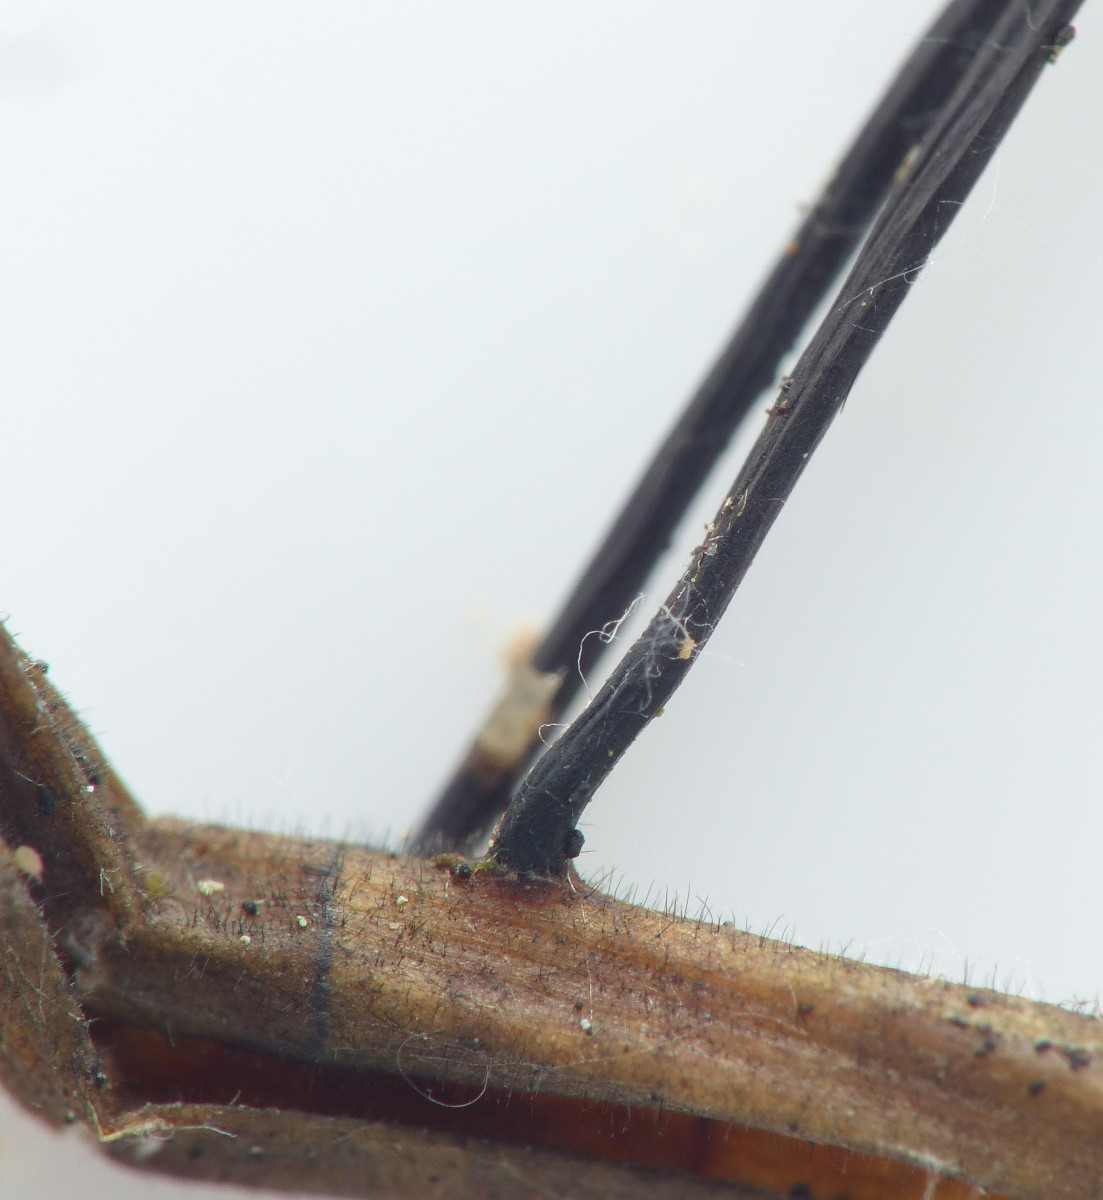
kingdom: Fungi
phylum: Basidiomycota
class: Agaricomycetes
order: Agaricales
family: Omphalotaceae
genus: Gymnopus
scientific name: Gymnopus androsaceus
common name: trådstokket fladhat
